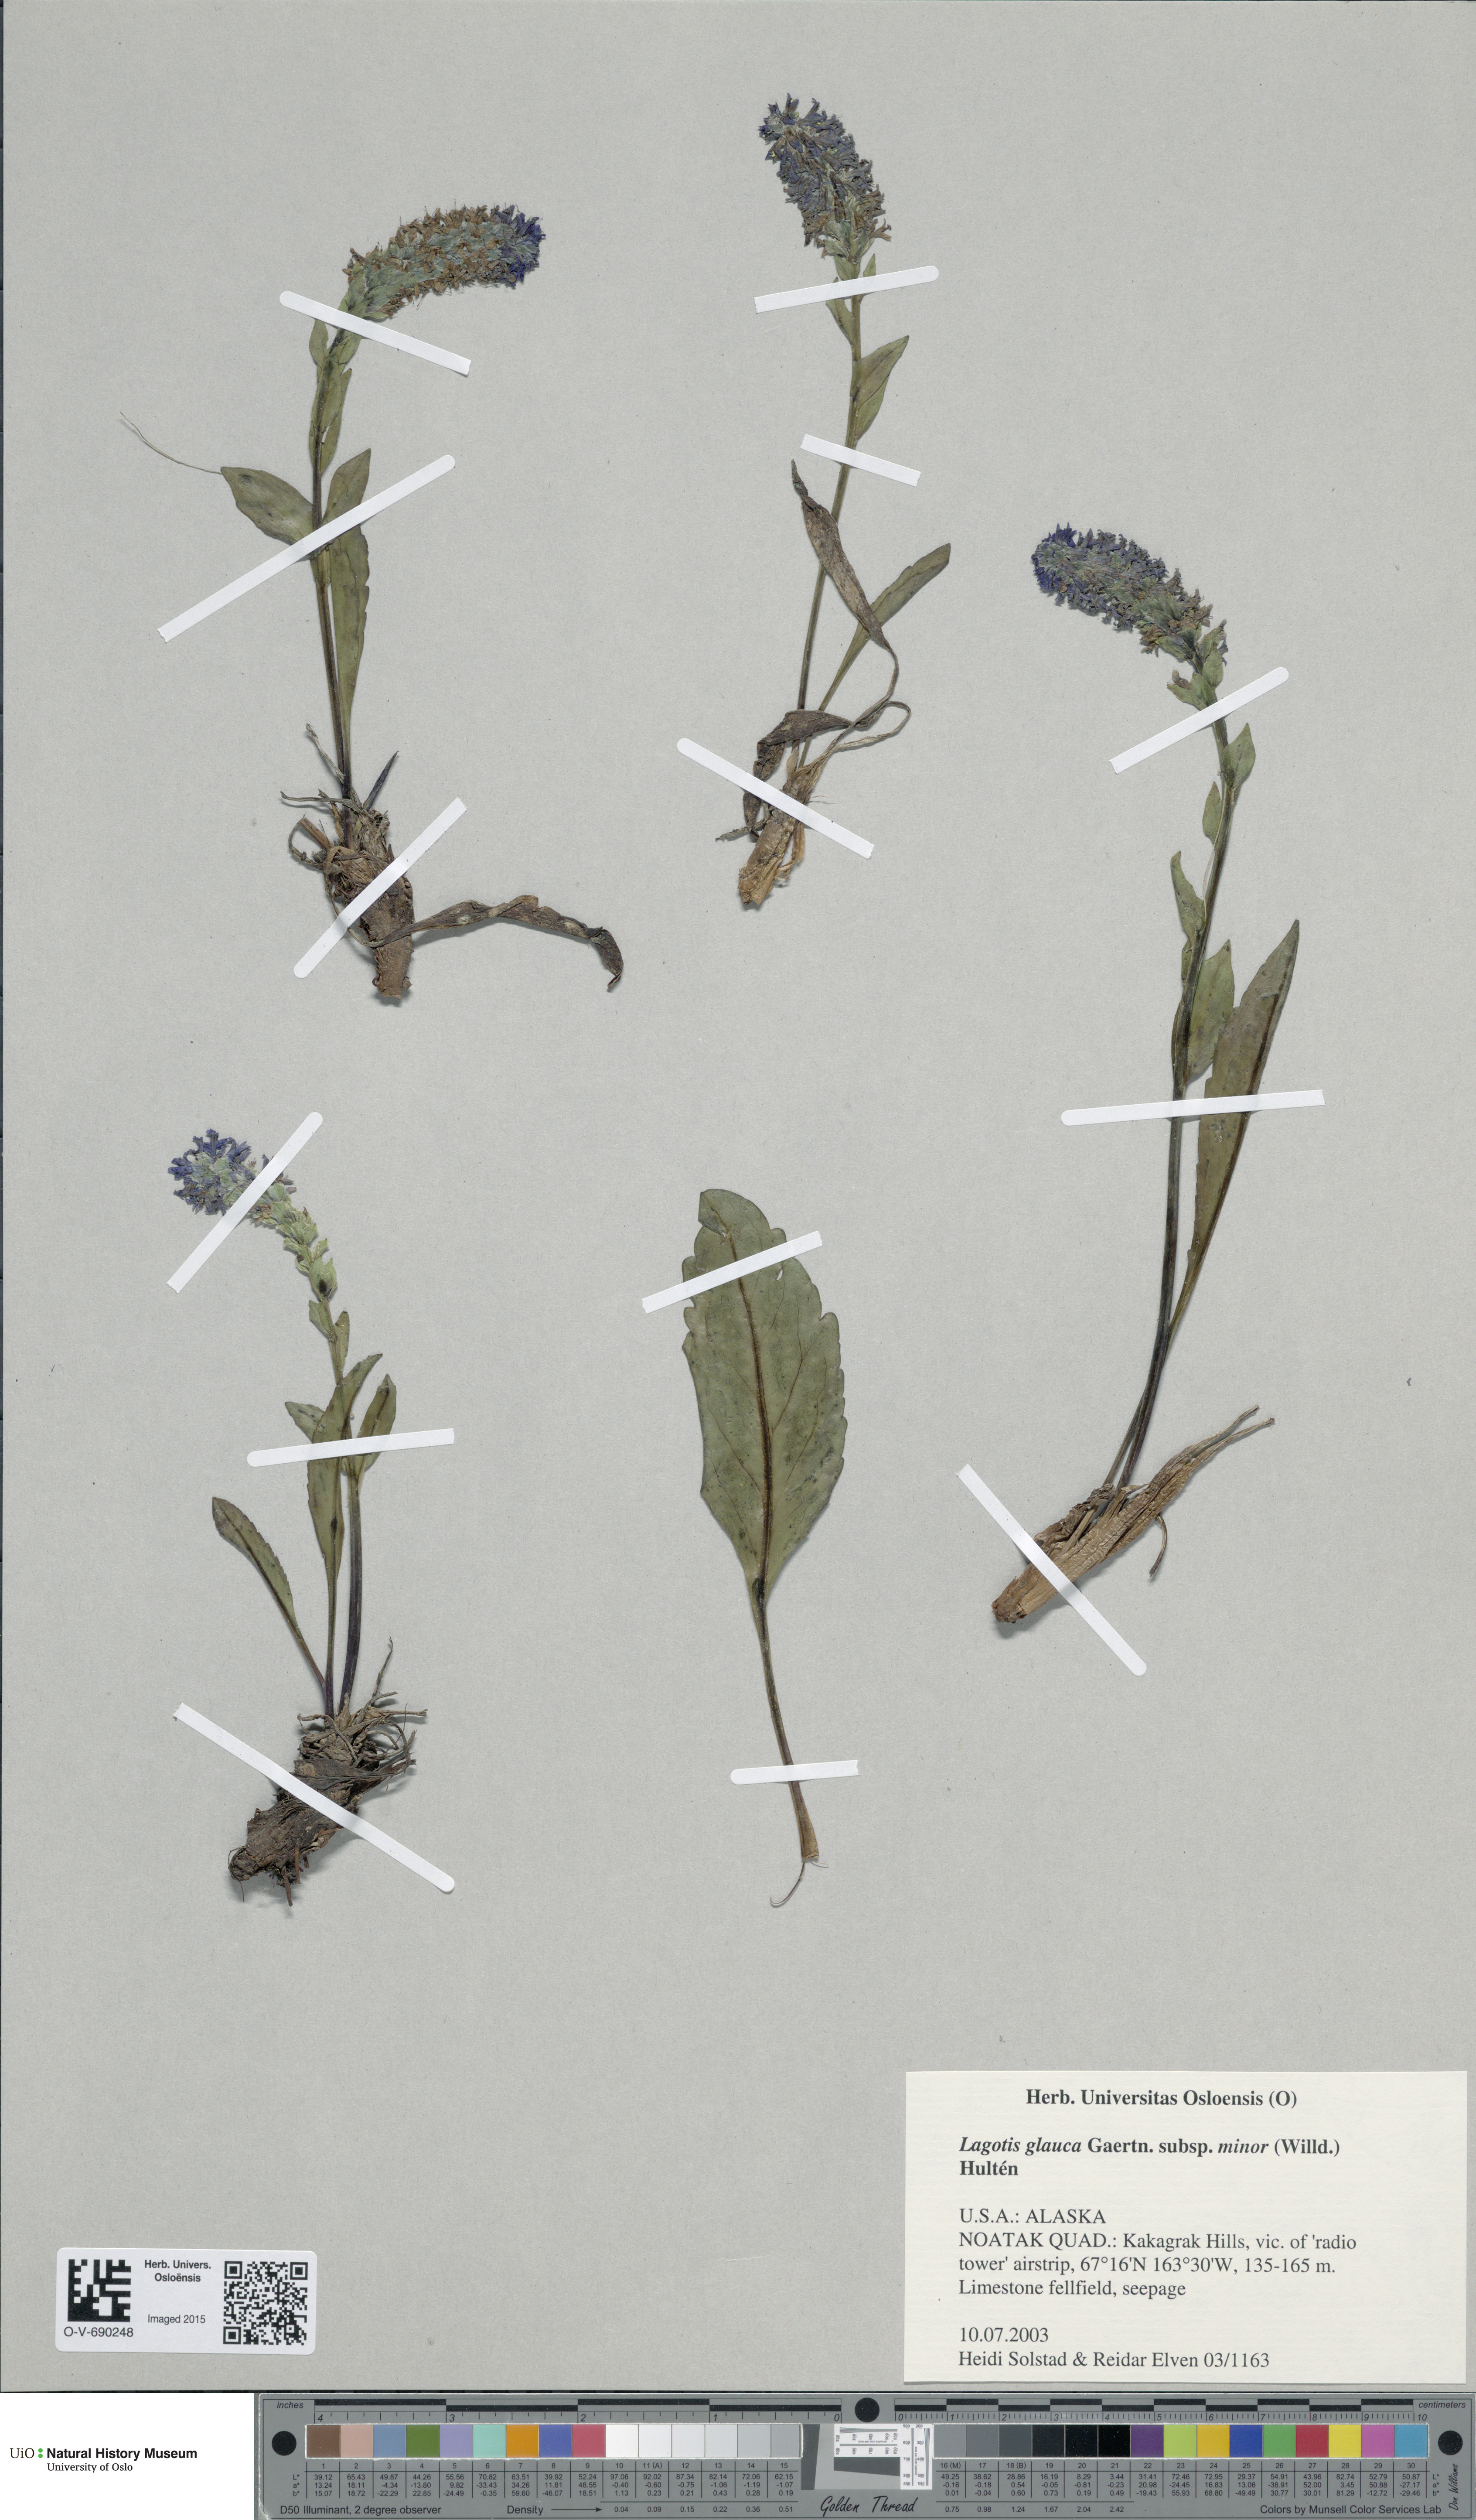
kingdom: Plantae
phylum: Tracheophyta
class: Magnoliopsida
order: Lamiales
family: Plantaginaceae
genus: Lagotis
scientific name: Lagotis glauca
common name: Glaucous weaselsnout
